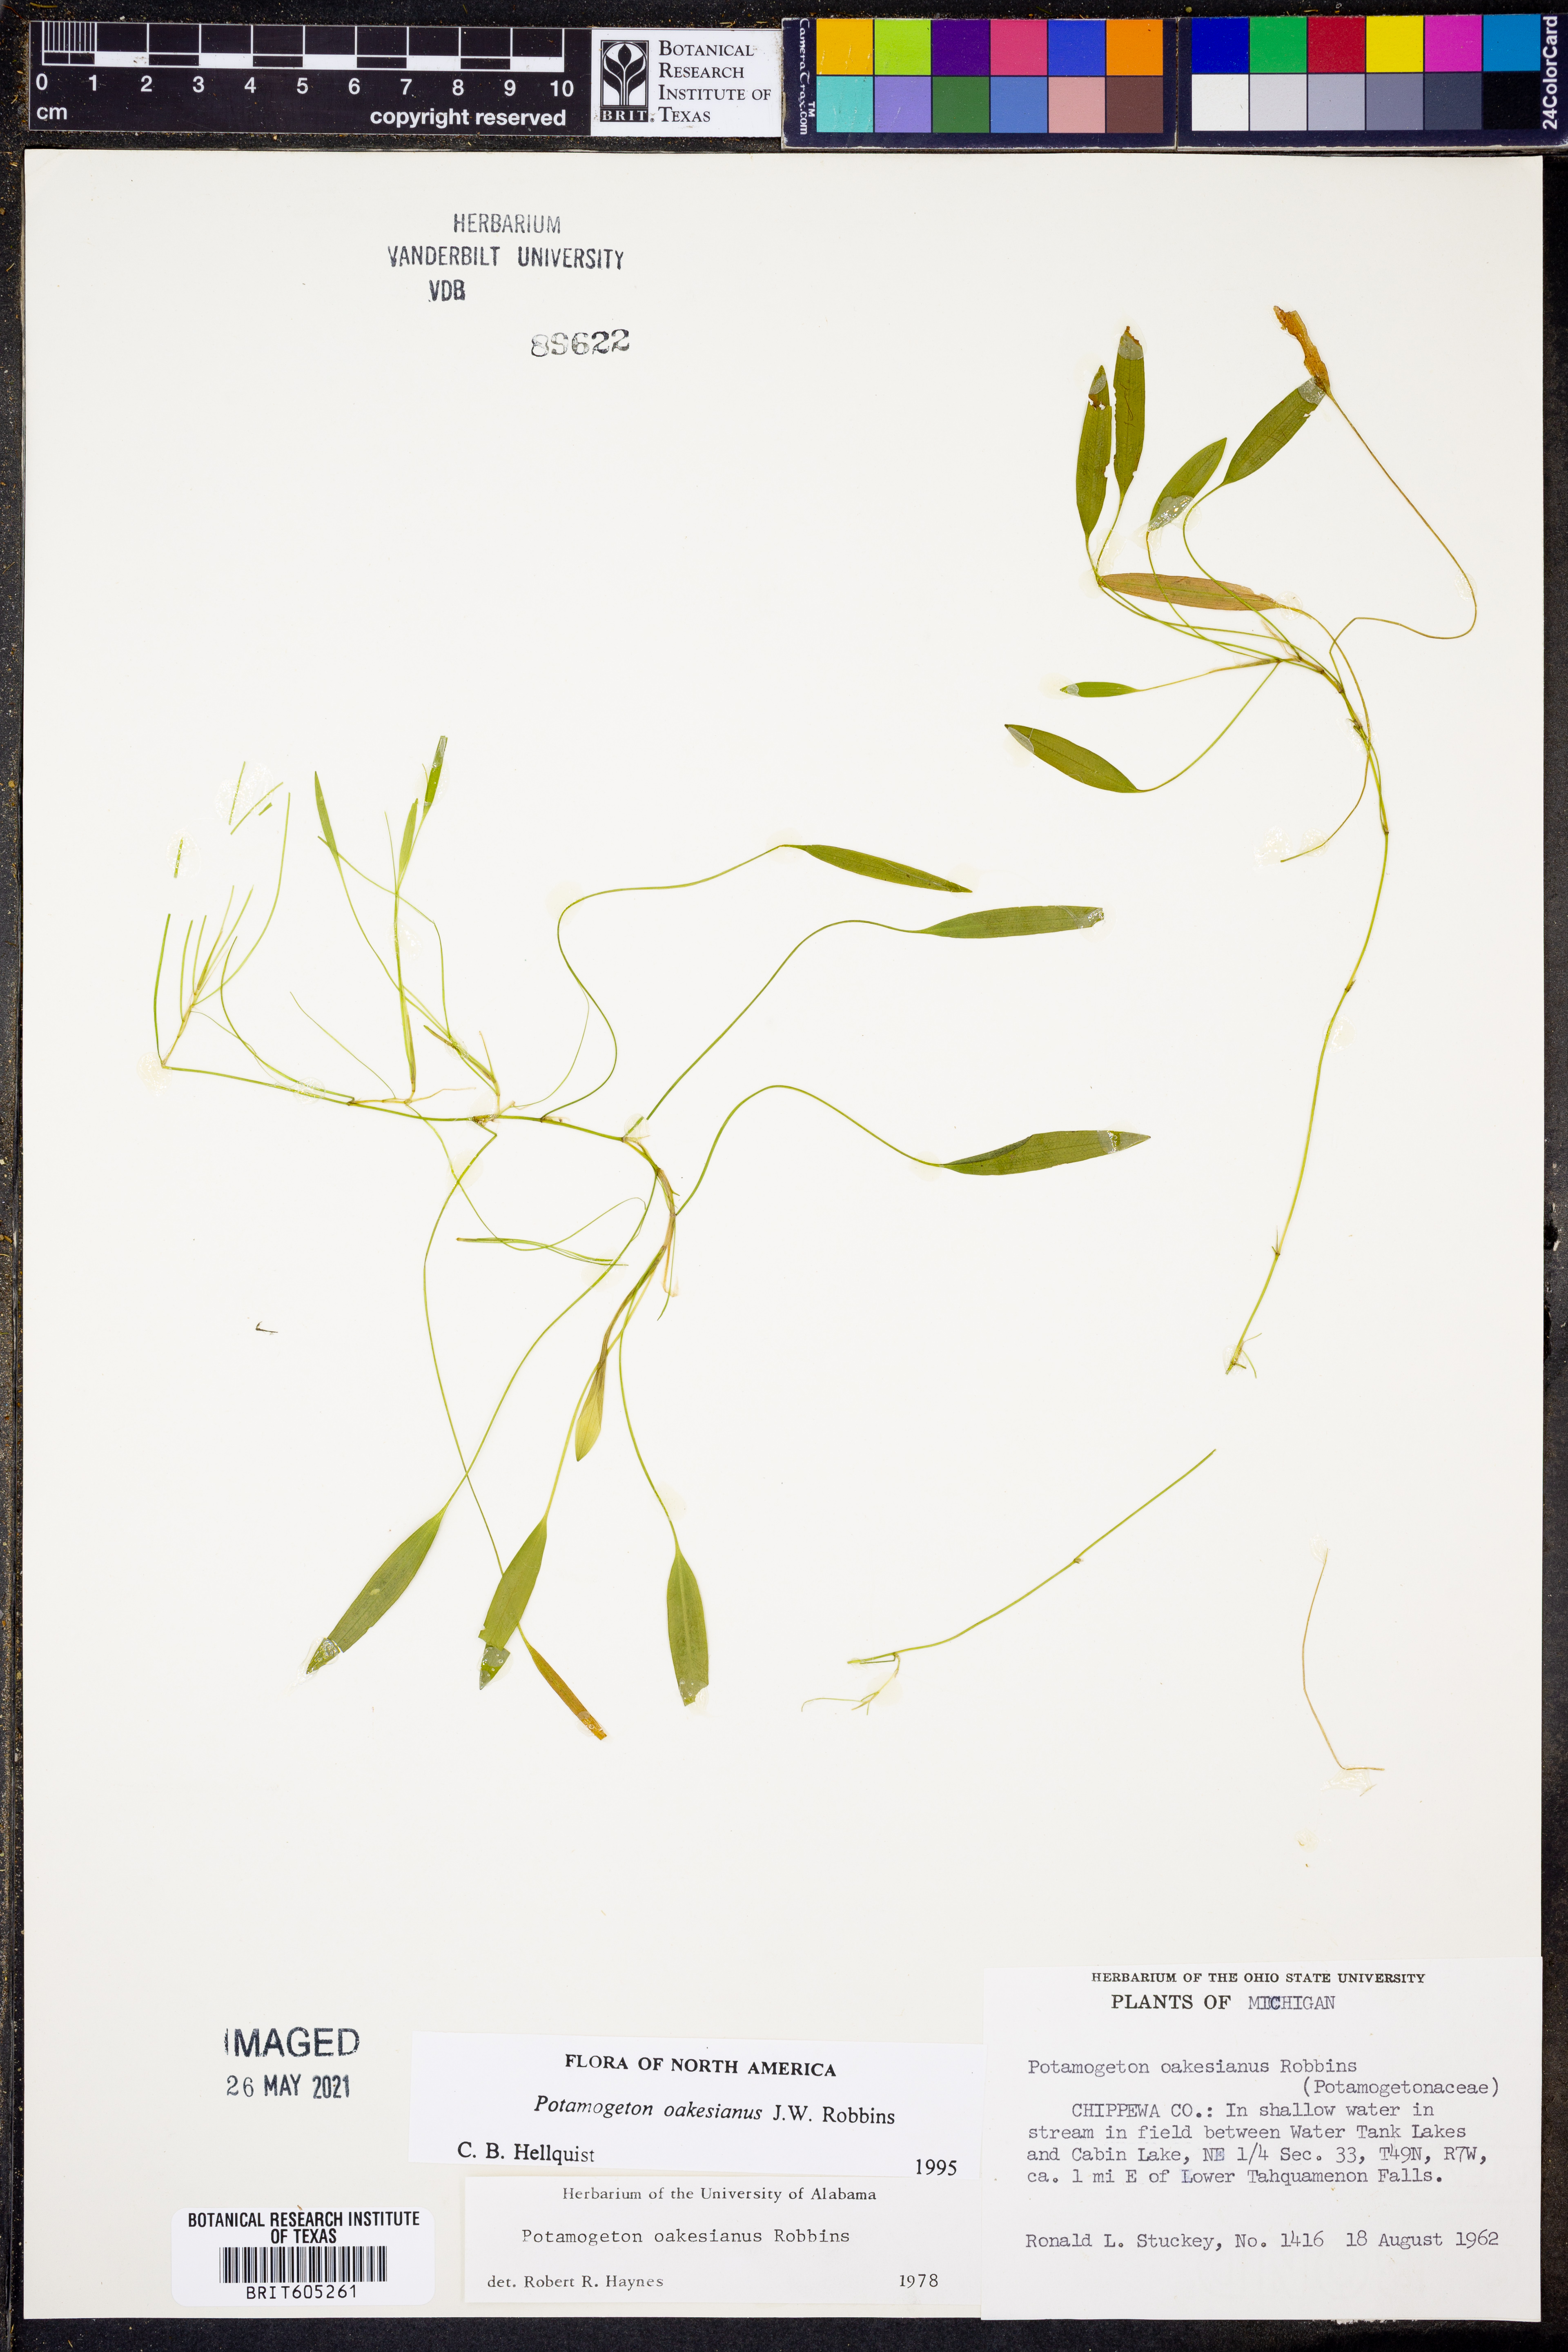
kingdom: Plantae
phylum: Tracheophyta
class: Liliopsida
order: Alismatales
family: Potamogetonaceae
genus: Potamogeton
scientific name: Potamogeton oakesianus
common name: Oakes' pondweed
